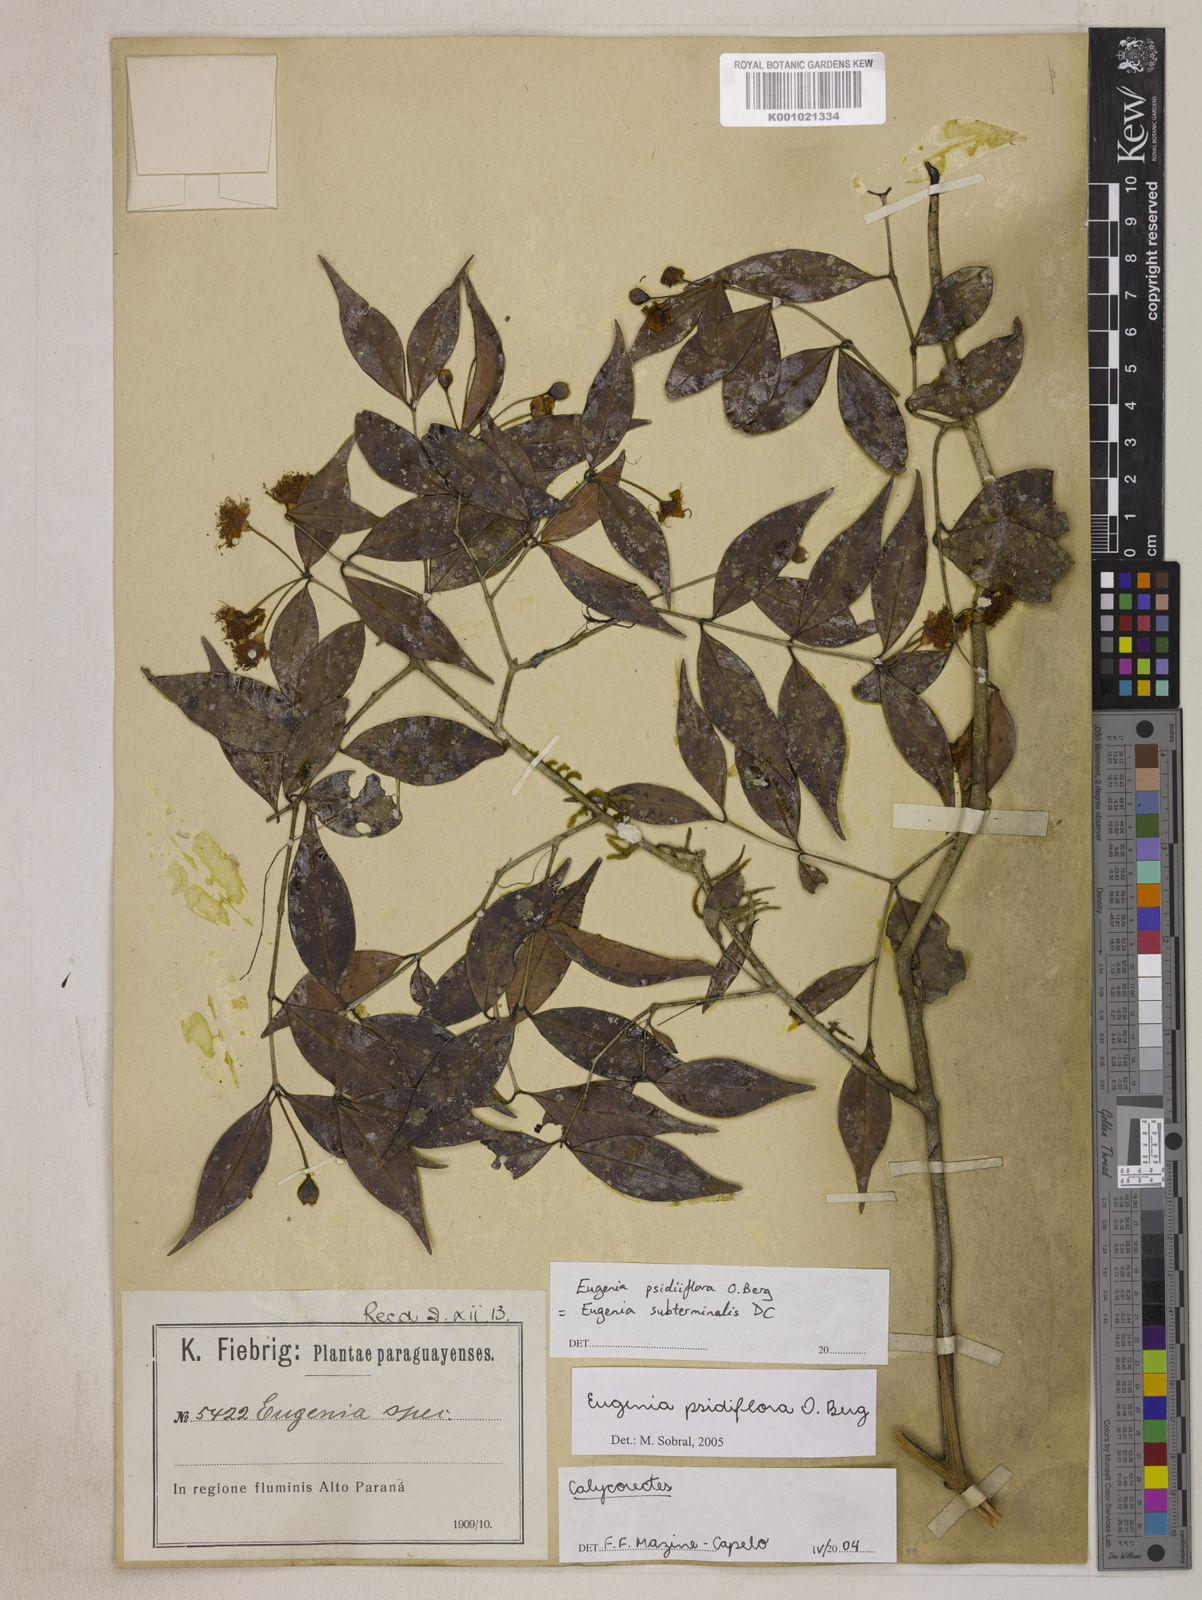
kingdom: Plantae
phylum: Tracheophyta
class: Magnoliopsida
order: Myrtales
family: Myrtaceae
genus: Eugenia
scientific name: Eugenia subterminalis
